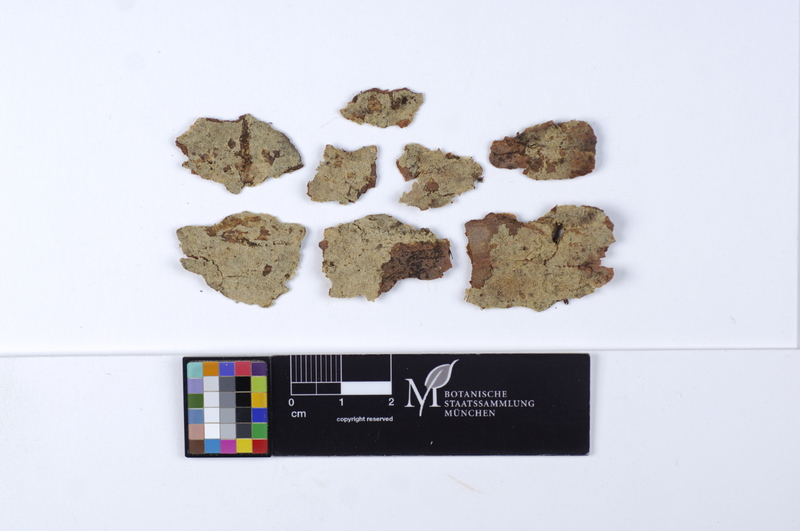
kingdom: Plantae
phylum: Tracheophyta
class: Pinopsida
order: Pinales
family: Pinaceae
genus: Pinus
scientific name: Pinus
